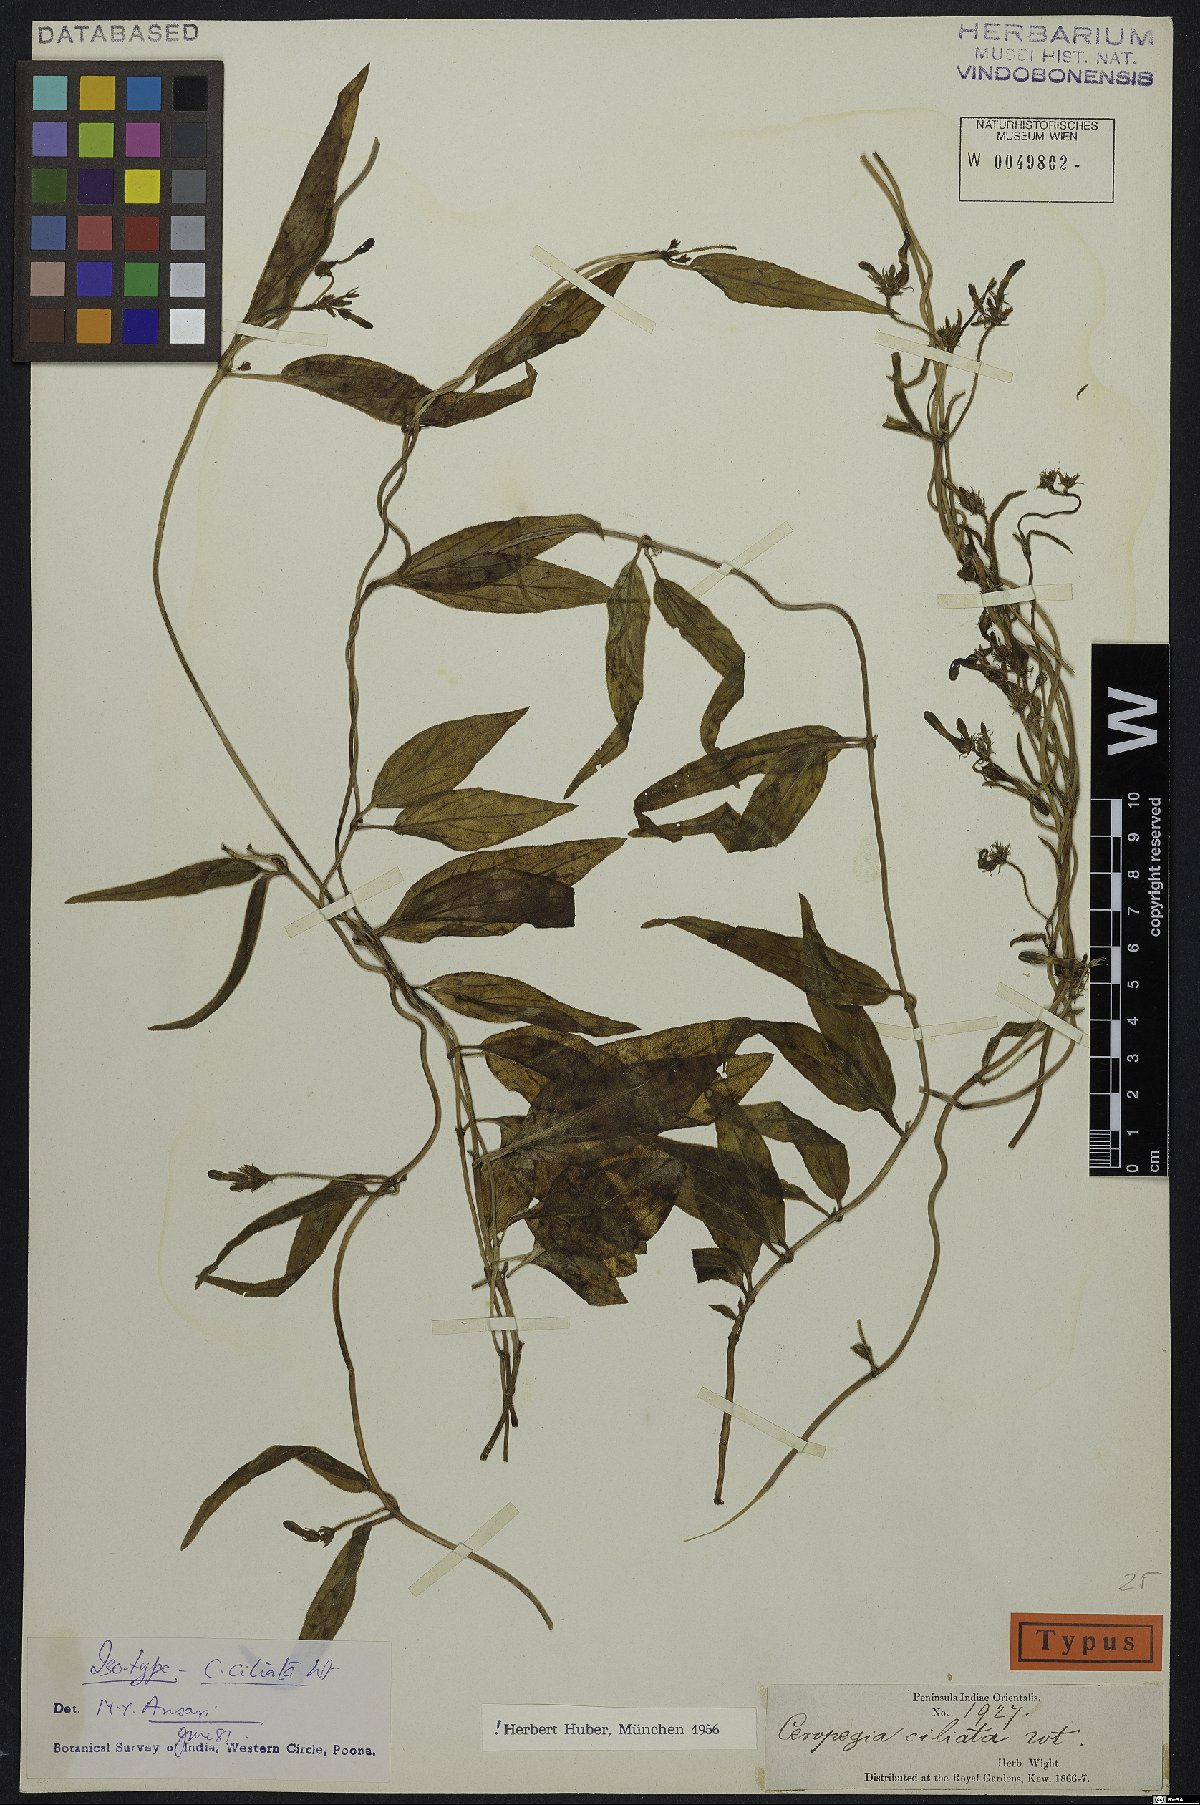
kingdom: Plantae
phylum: Tracheophyta
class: Magnoliopsida
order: Gentianales
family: Apocynaceae
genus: Ceropegia
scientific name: Ceropegia ciliata
